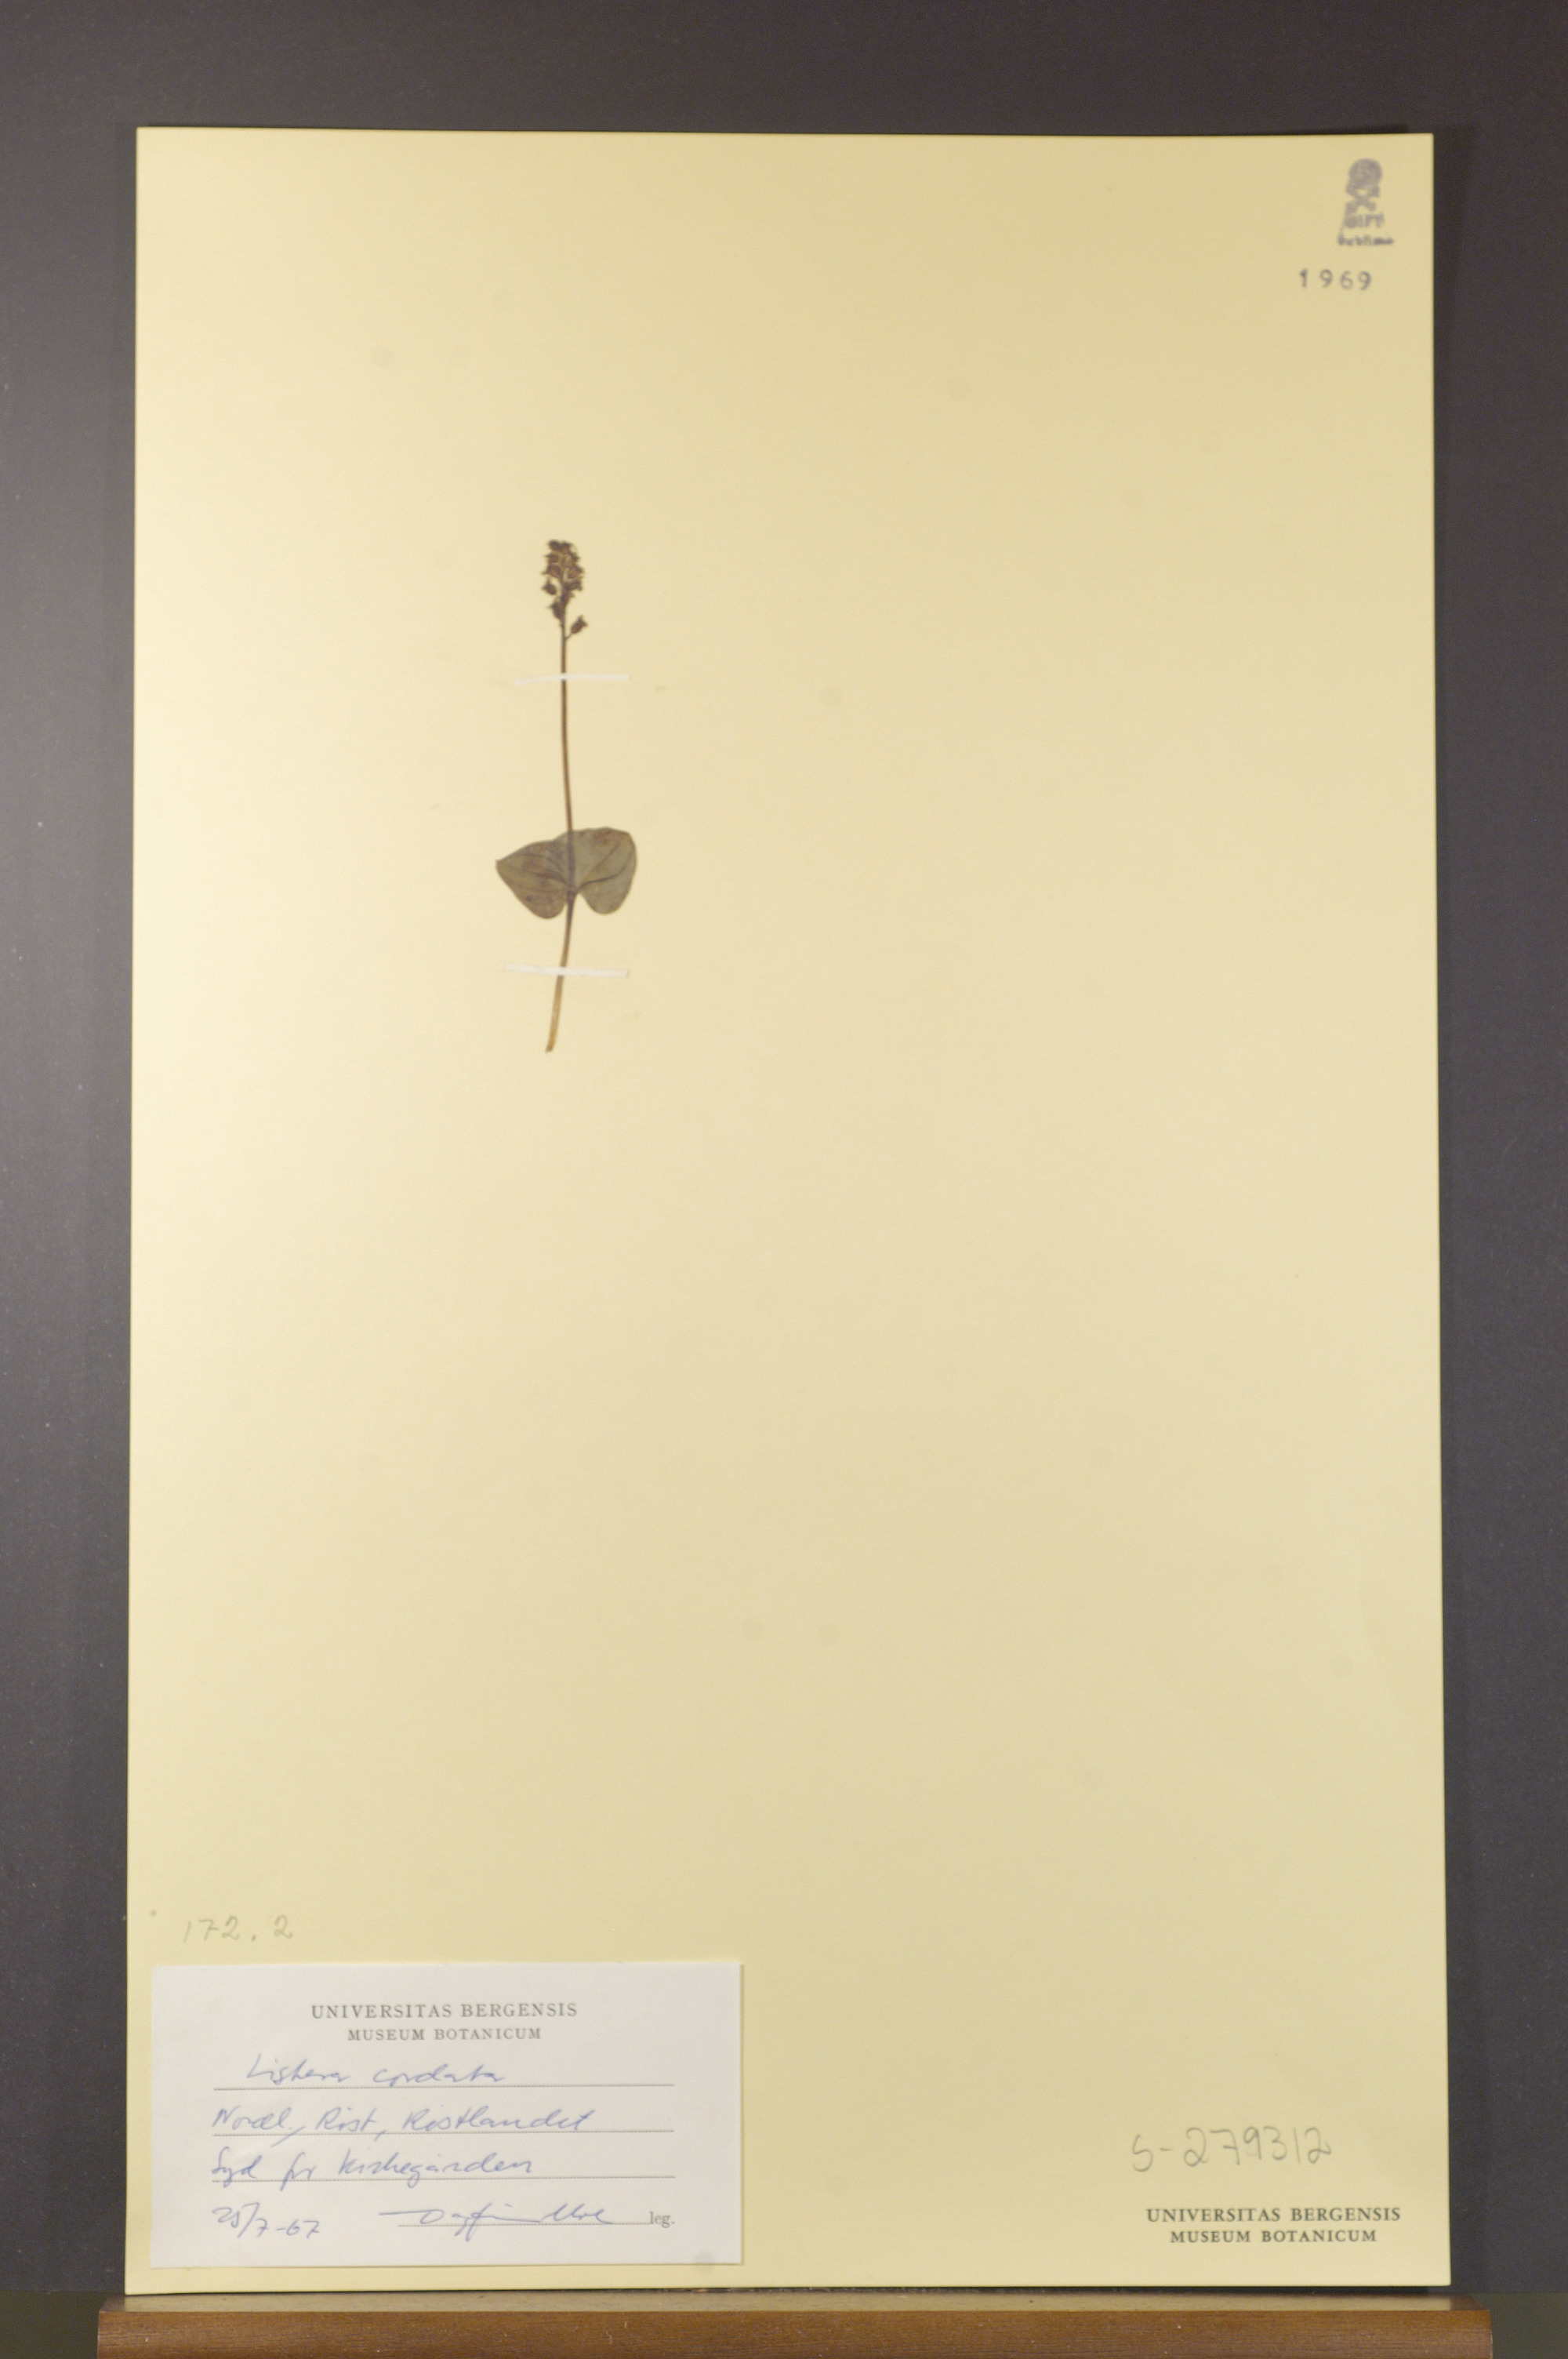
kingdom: Plantae
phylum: Tracheophyta
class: Liliopsida
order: Asparagales
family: Orchidaceae
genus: Neottia
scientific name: Neottia cordata
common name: Lesser twayblade
